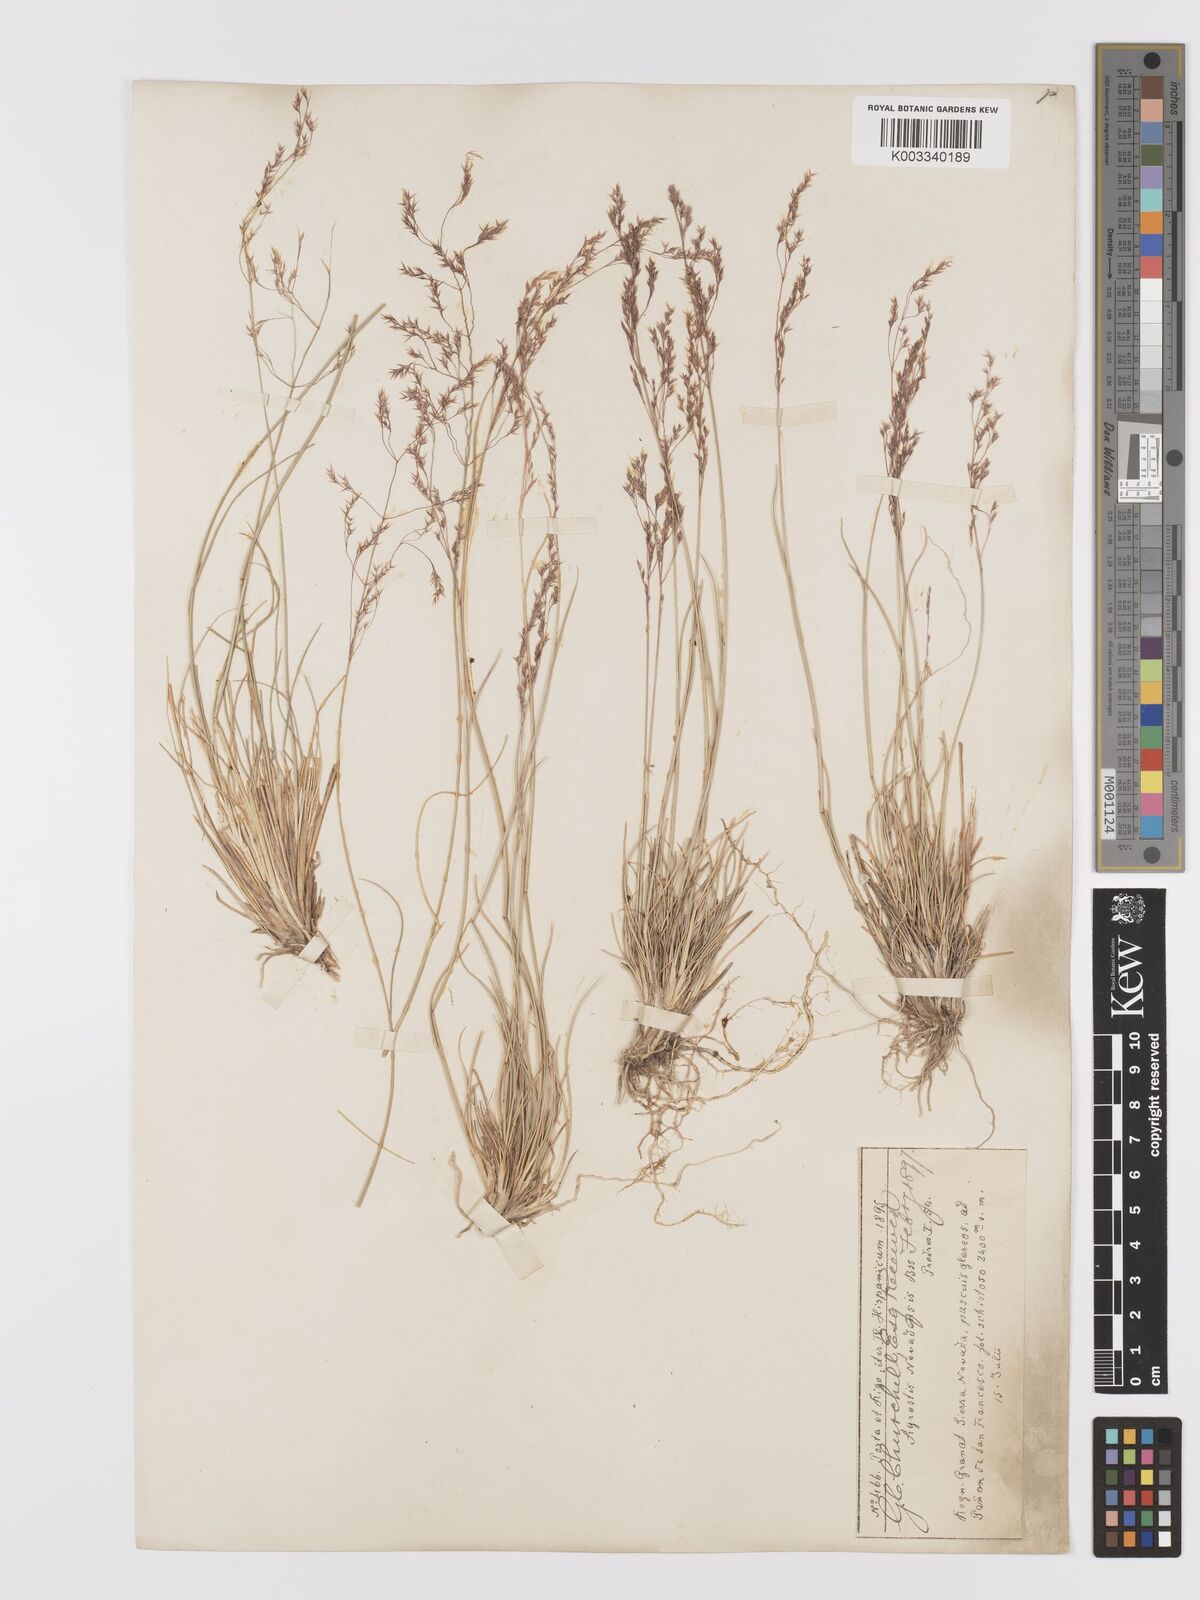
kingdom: Plantae
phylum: Tracheophyta
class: Liliopsida
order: Poales
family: Poaceae
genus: Agrostis
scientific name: Agrostis nevadensis
